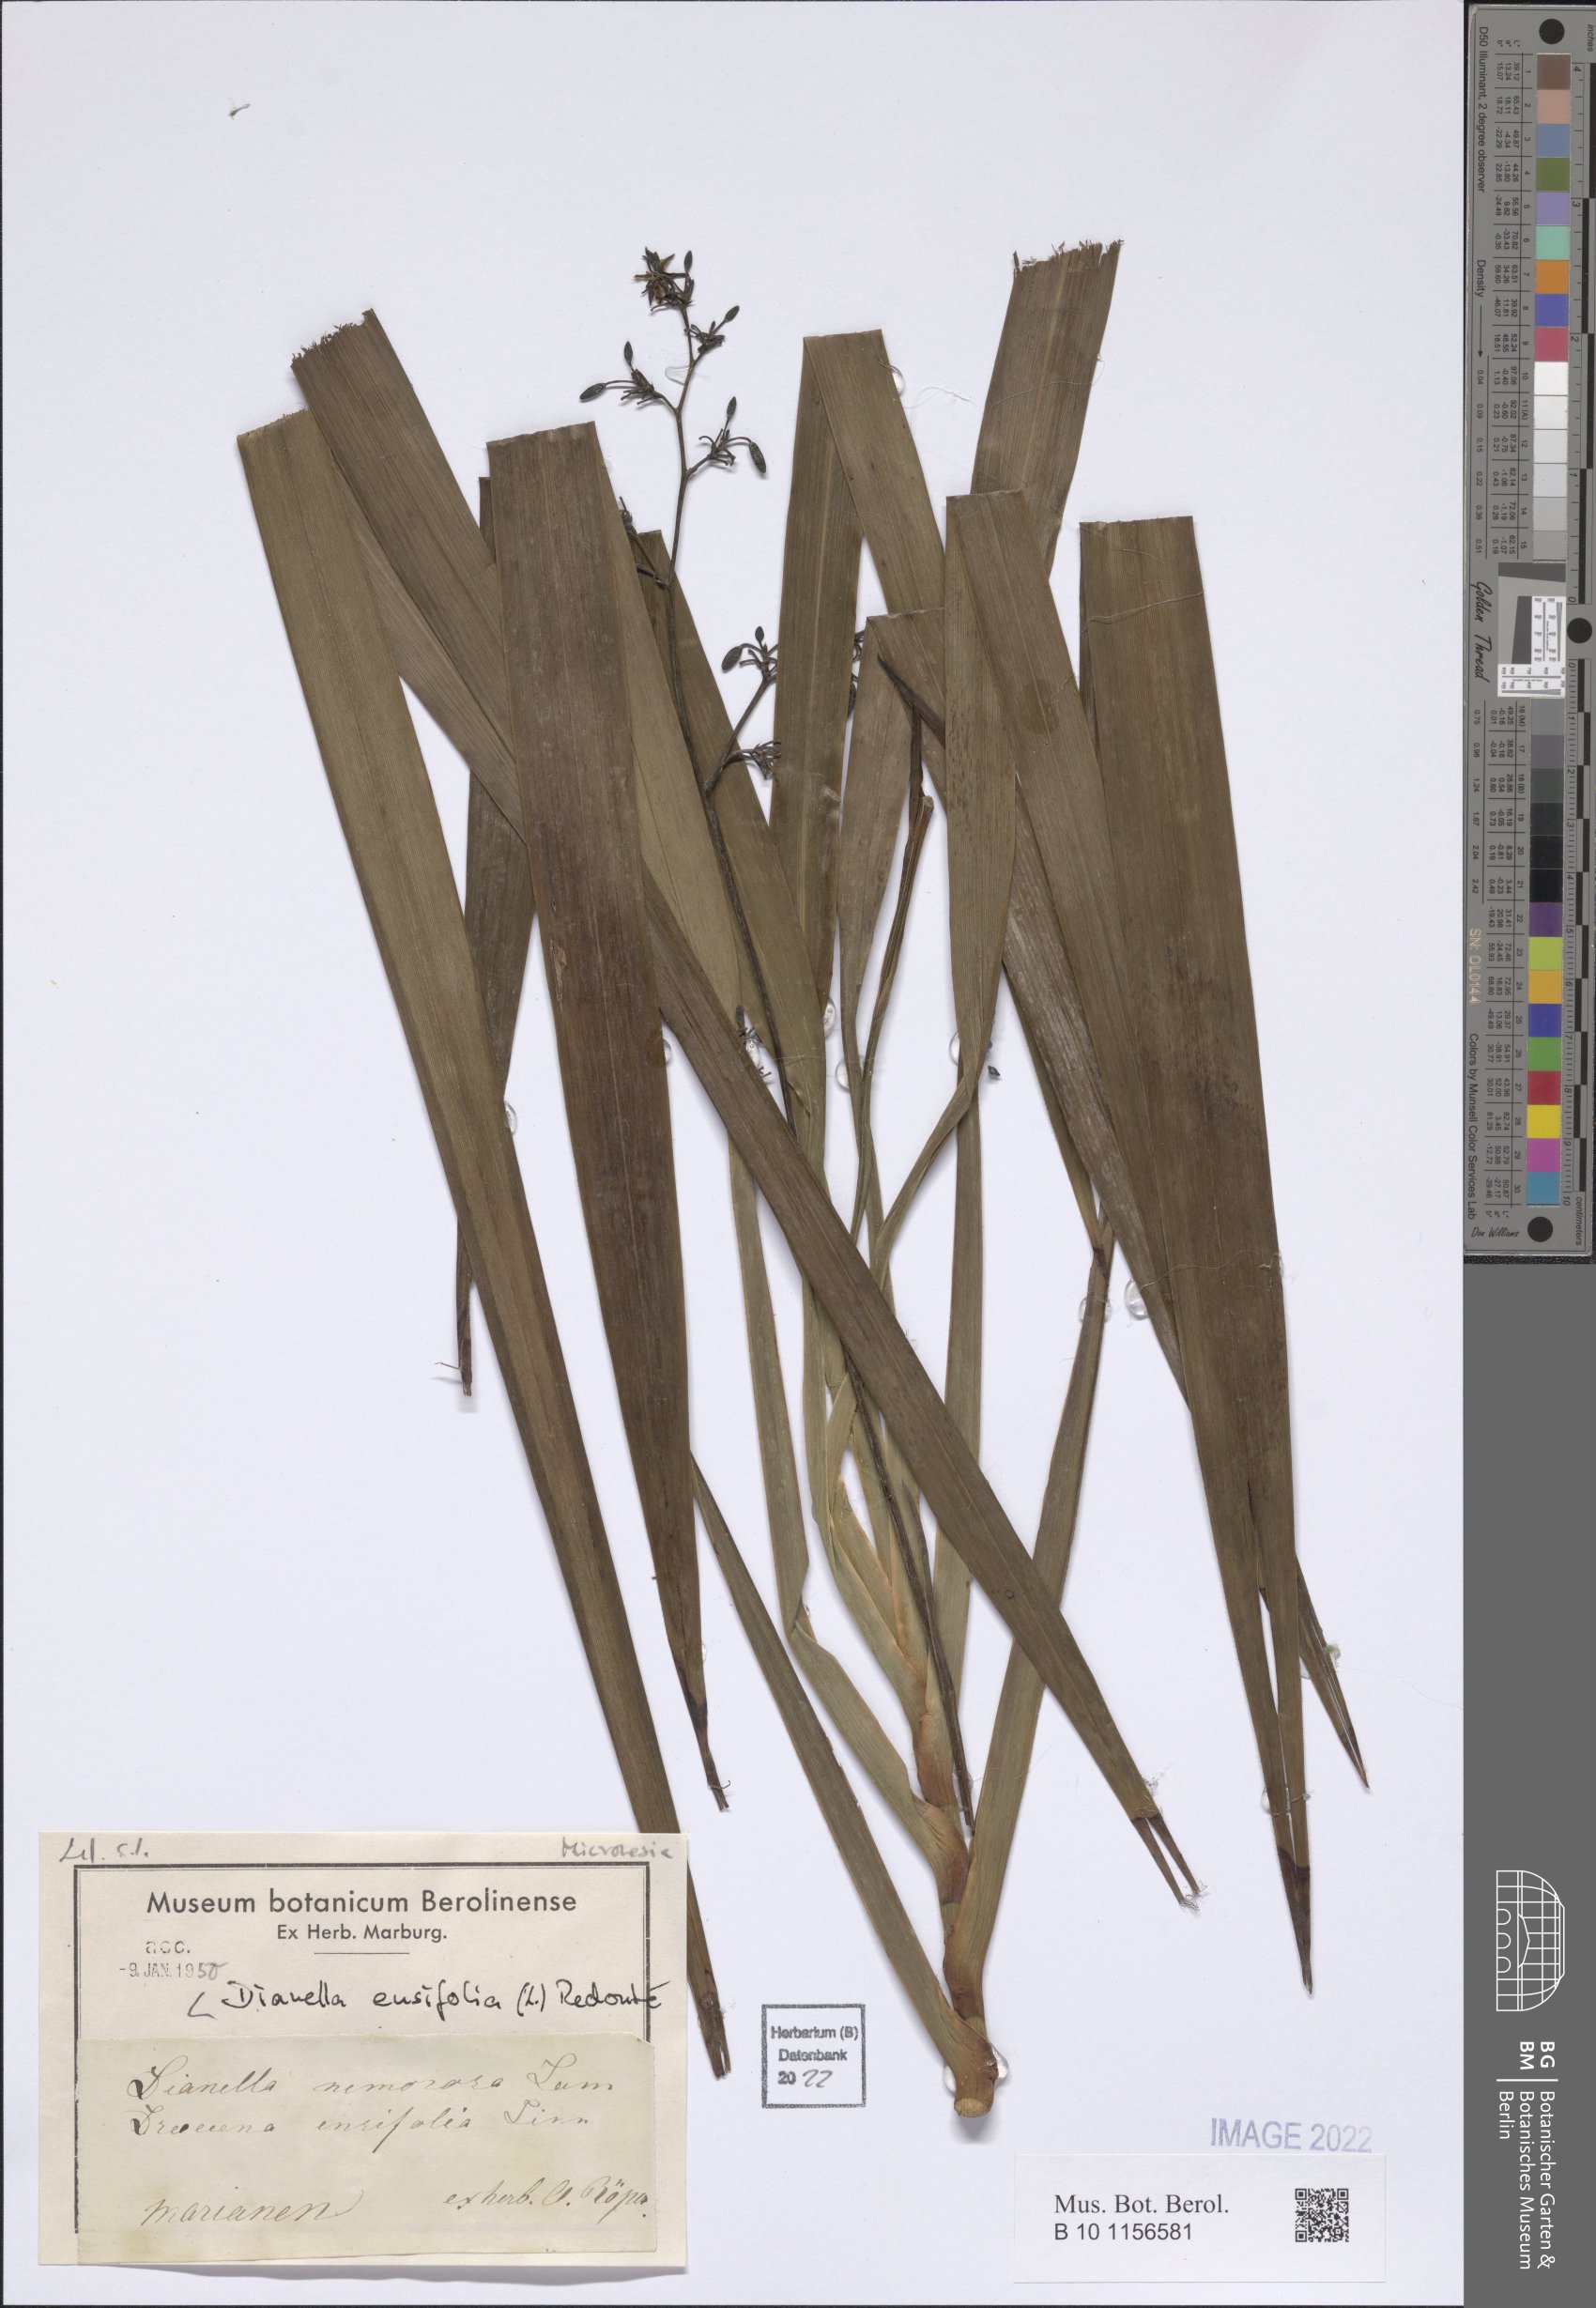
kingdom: Plantae
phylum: Tracheophyta
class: Liliopsida
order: Asparagales
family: Asphodelaceae
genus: Dianella
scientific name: Dianella ensifolia
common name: New zealand lilyplant
